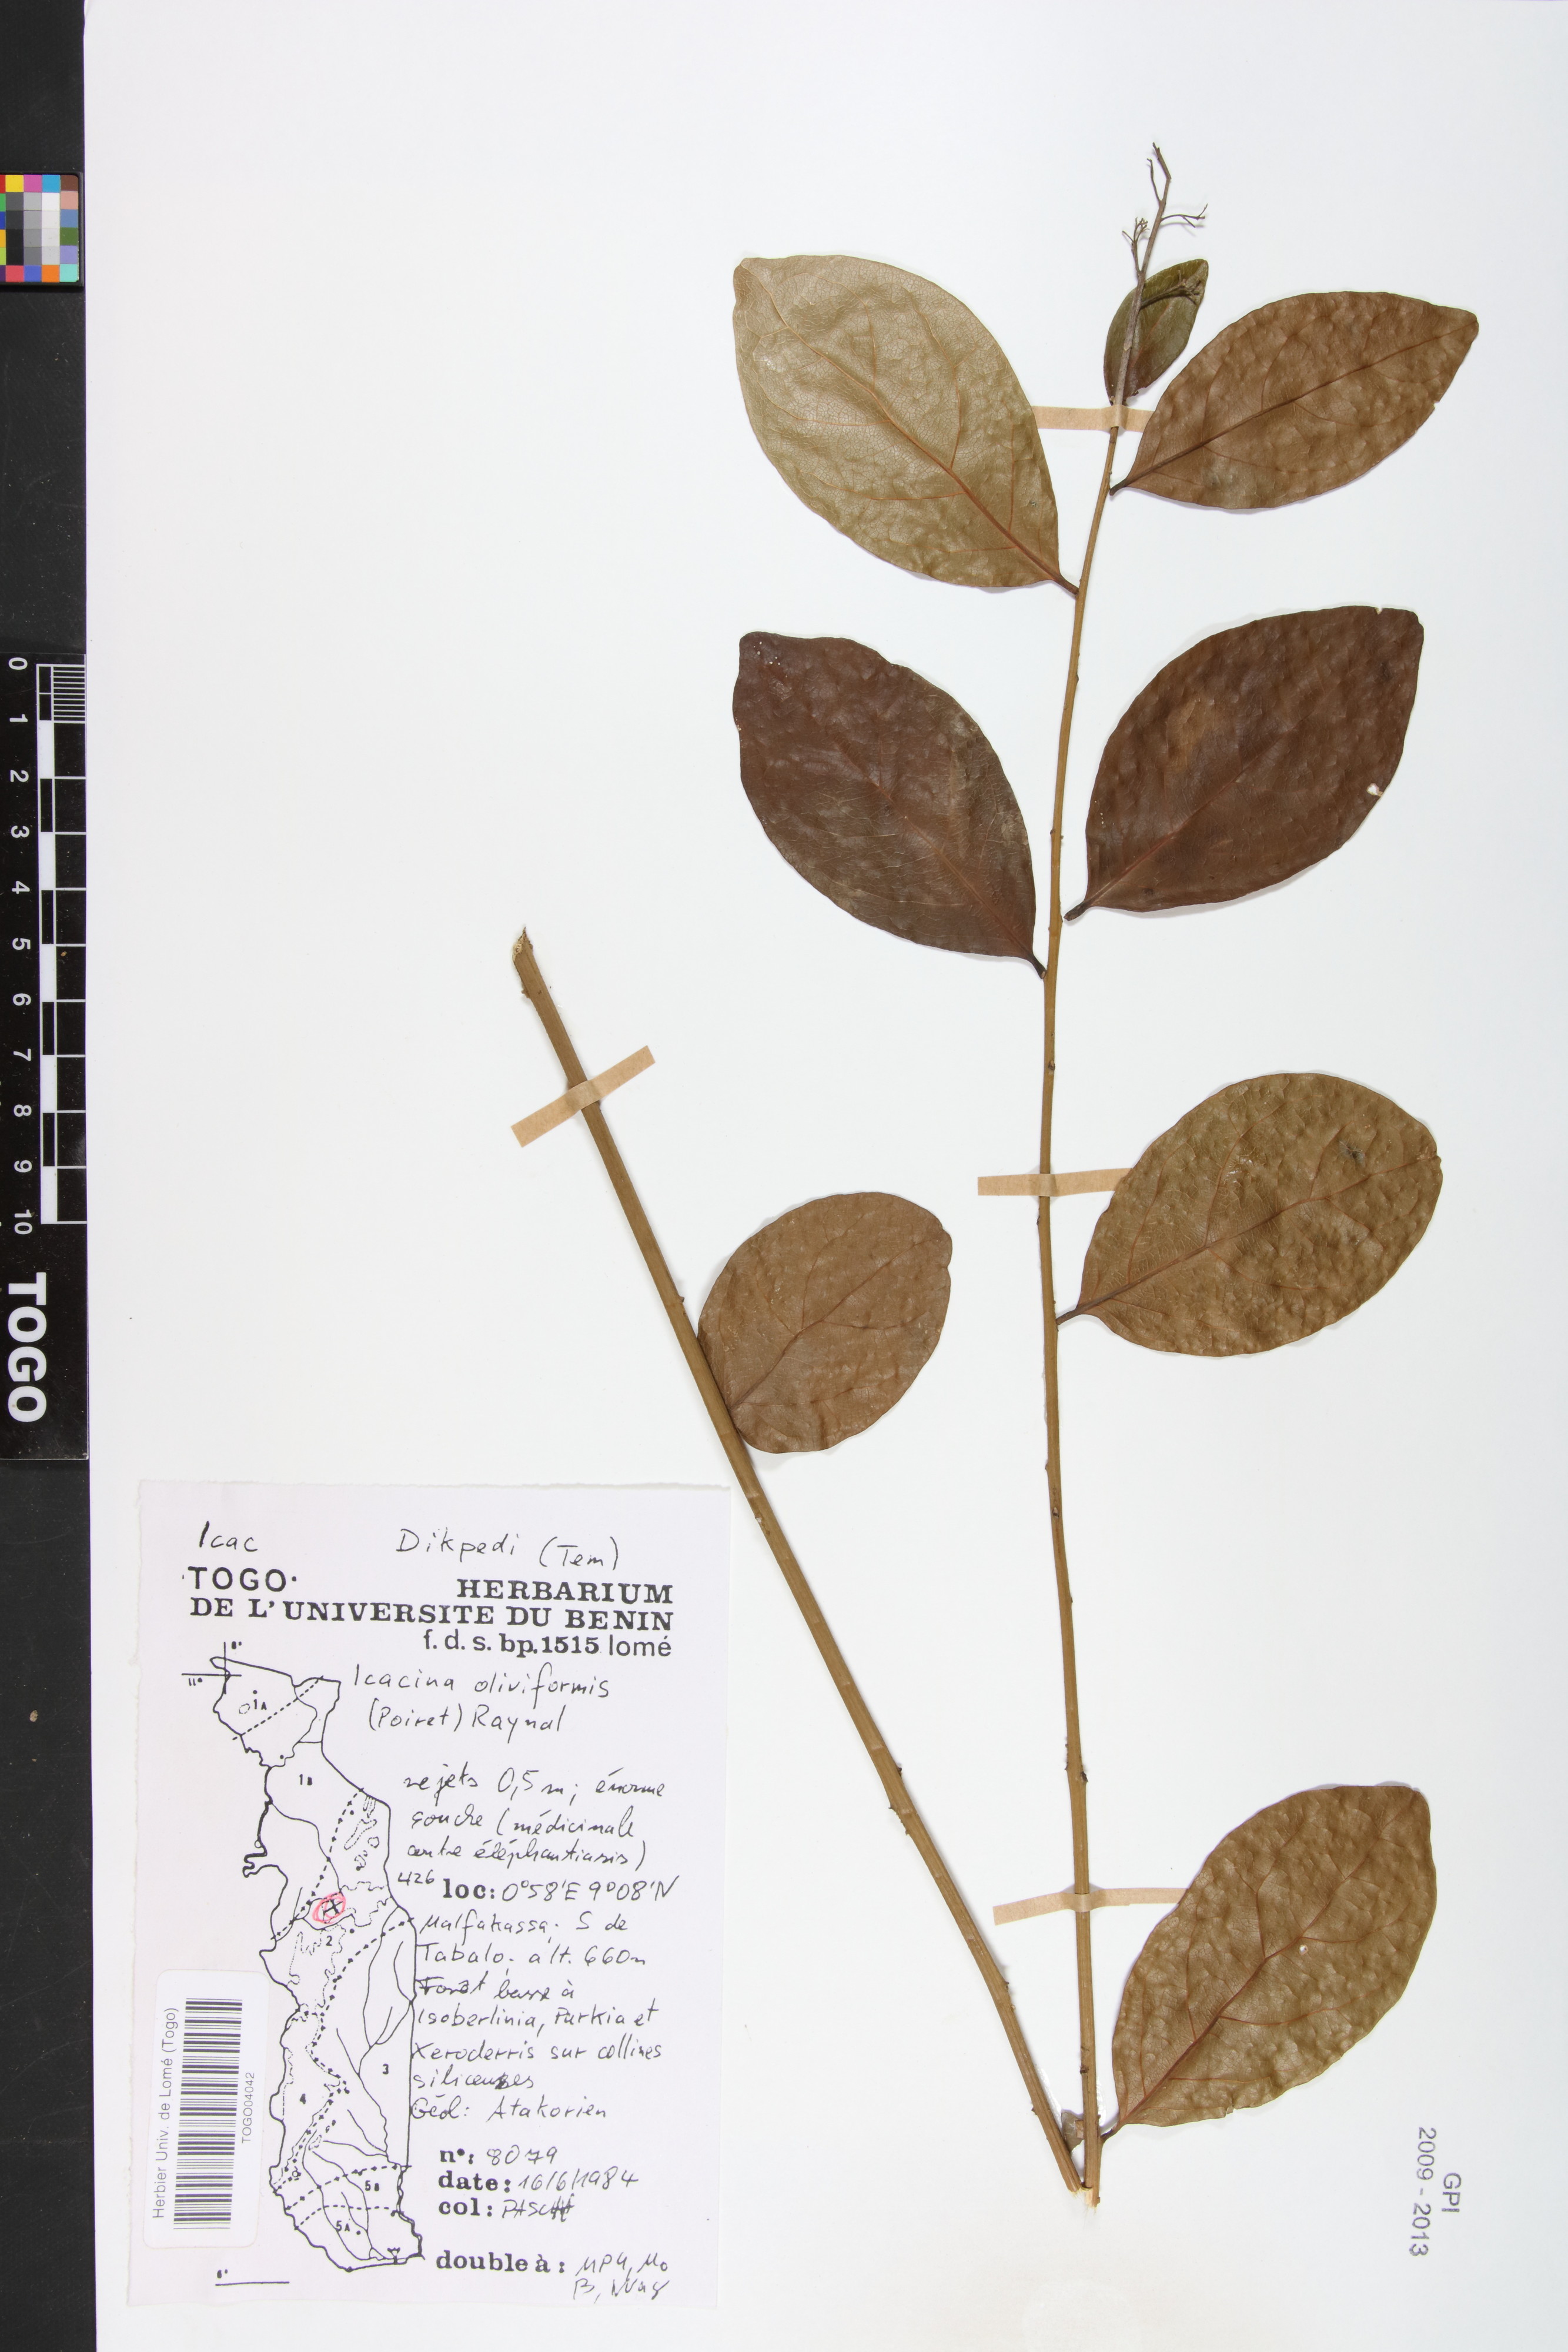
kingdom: Plantae
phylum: Tracheophyta
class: Magnoliopsida
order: Icacinales
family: Icacinaceae
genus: Icacina
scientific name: Icacina oliviformis
